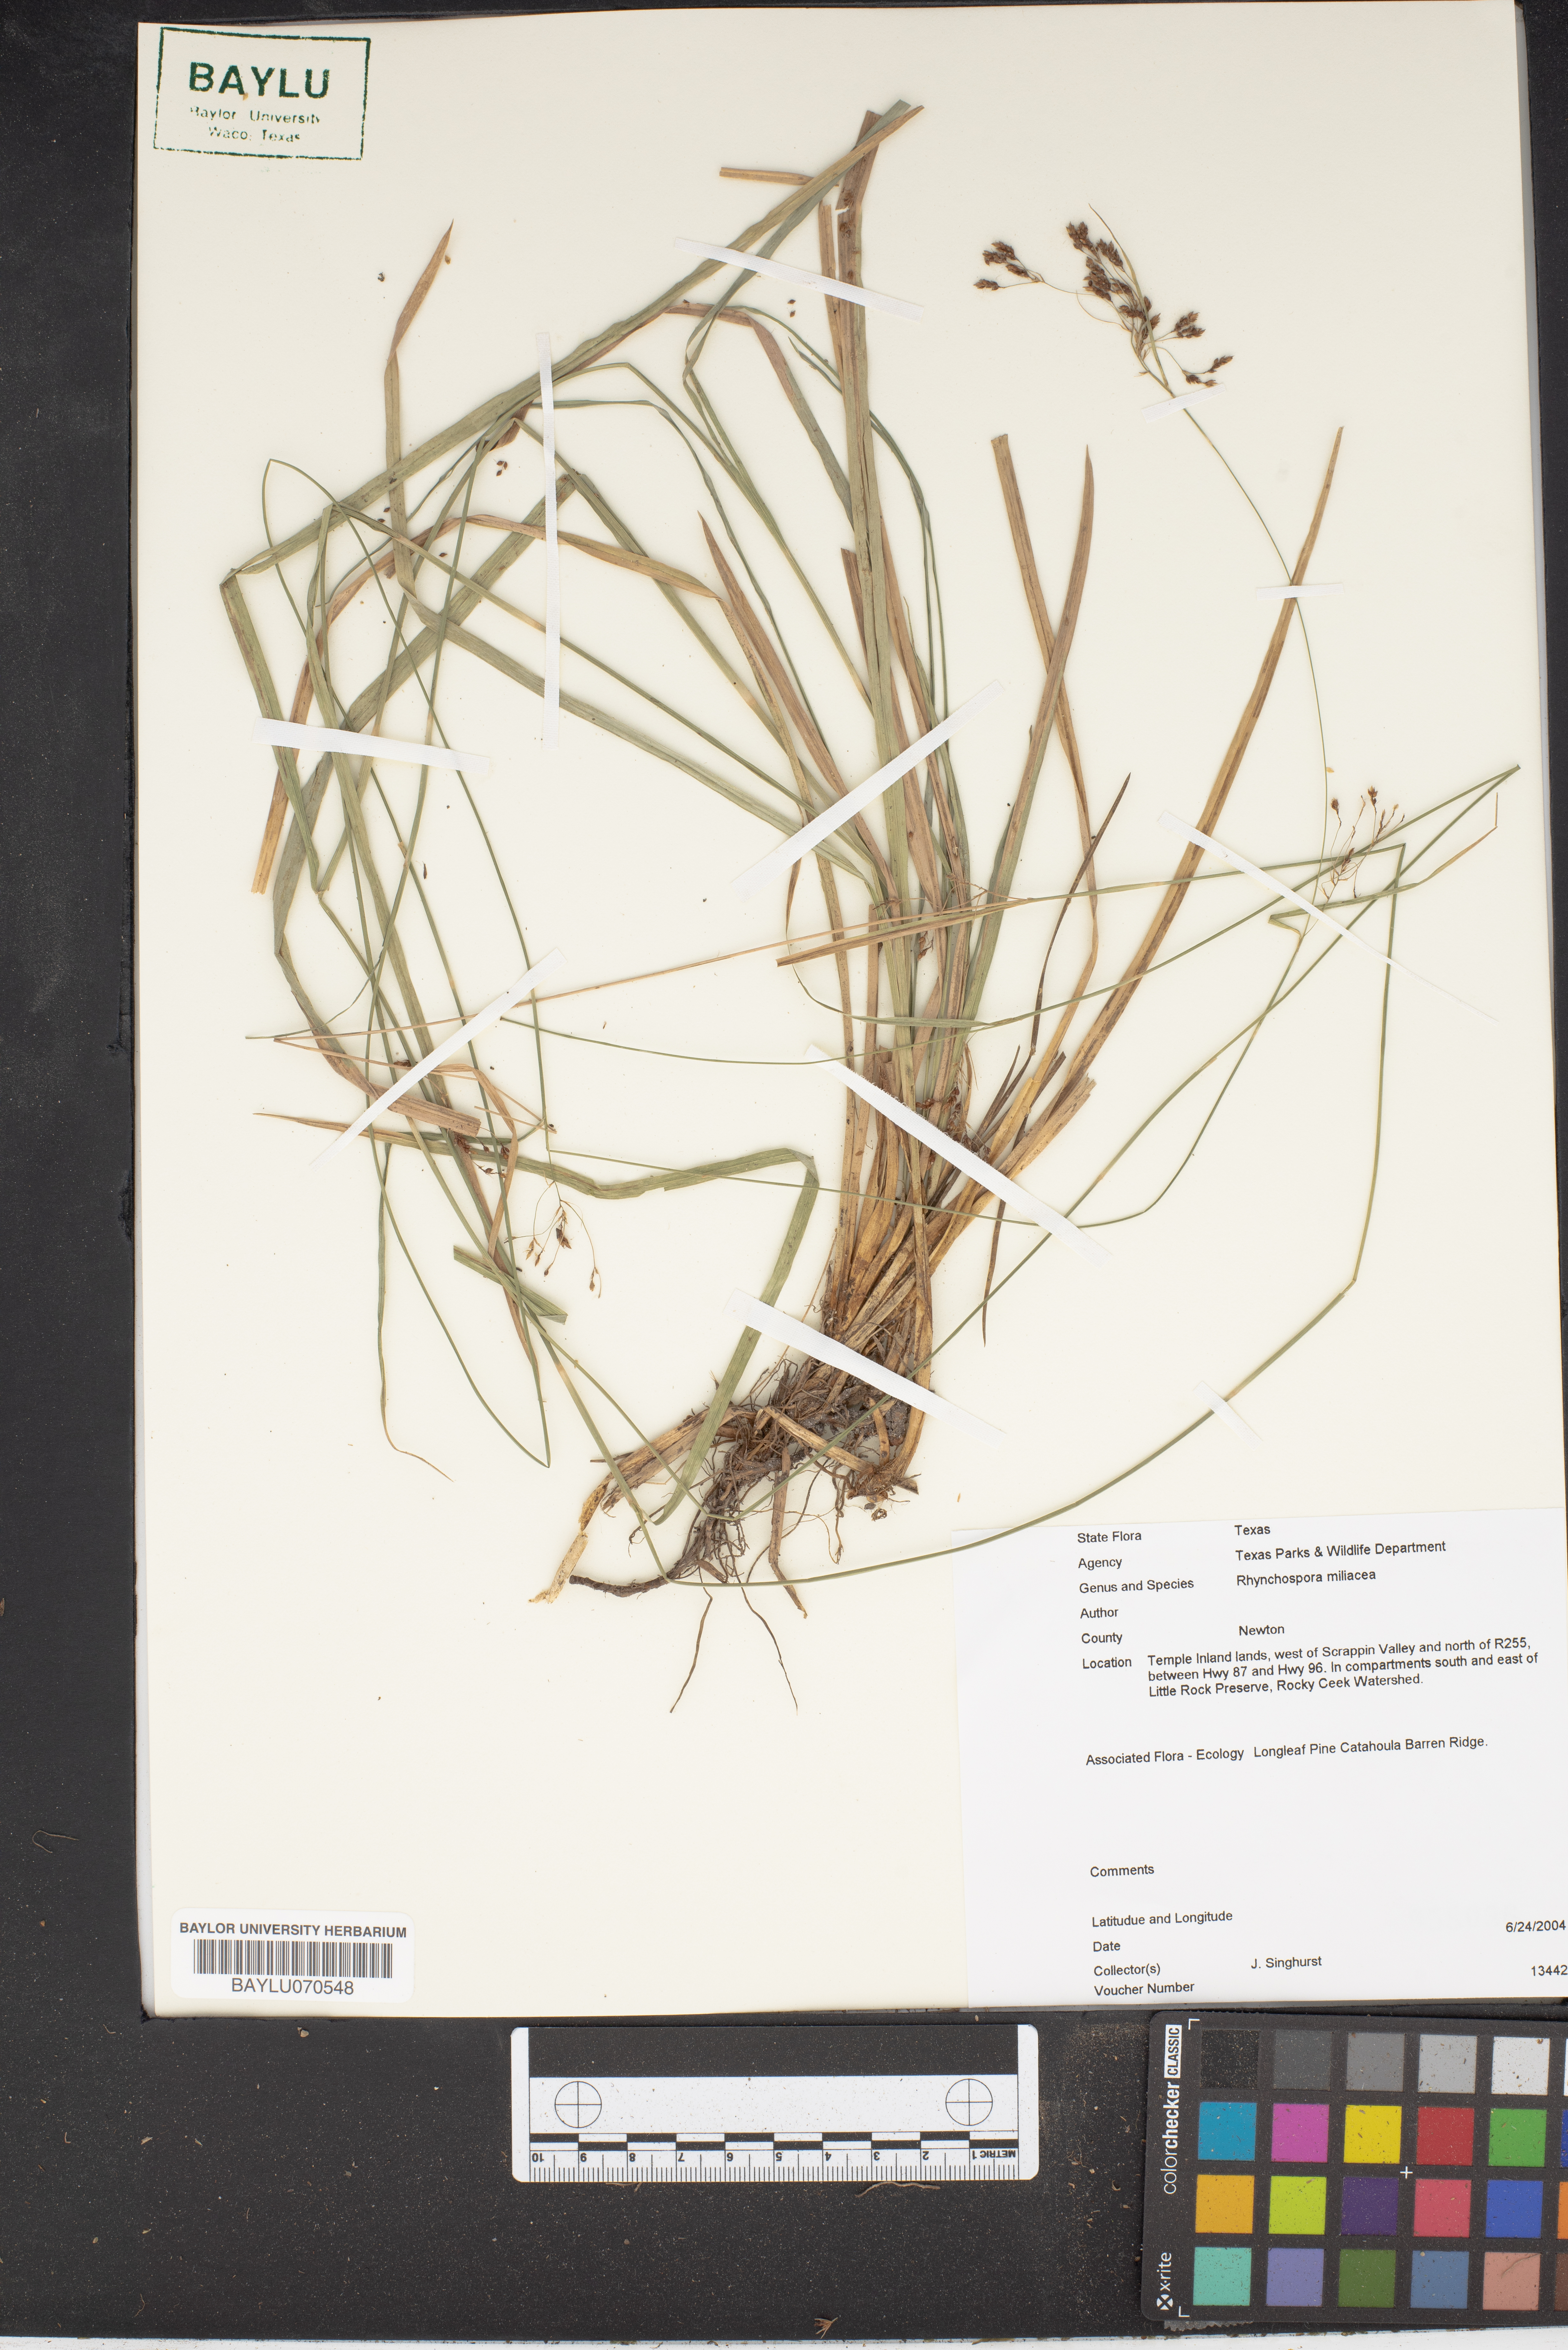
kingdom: Plantae
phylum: Tracheophyta
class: Liliopsida
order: Poales
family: Cyperaceae
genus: Rhynchospora
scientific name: Rhynchospora miliacea
